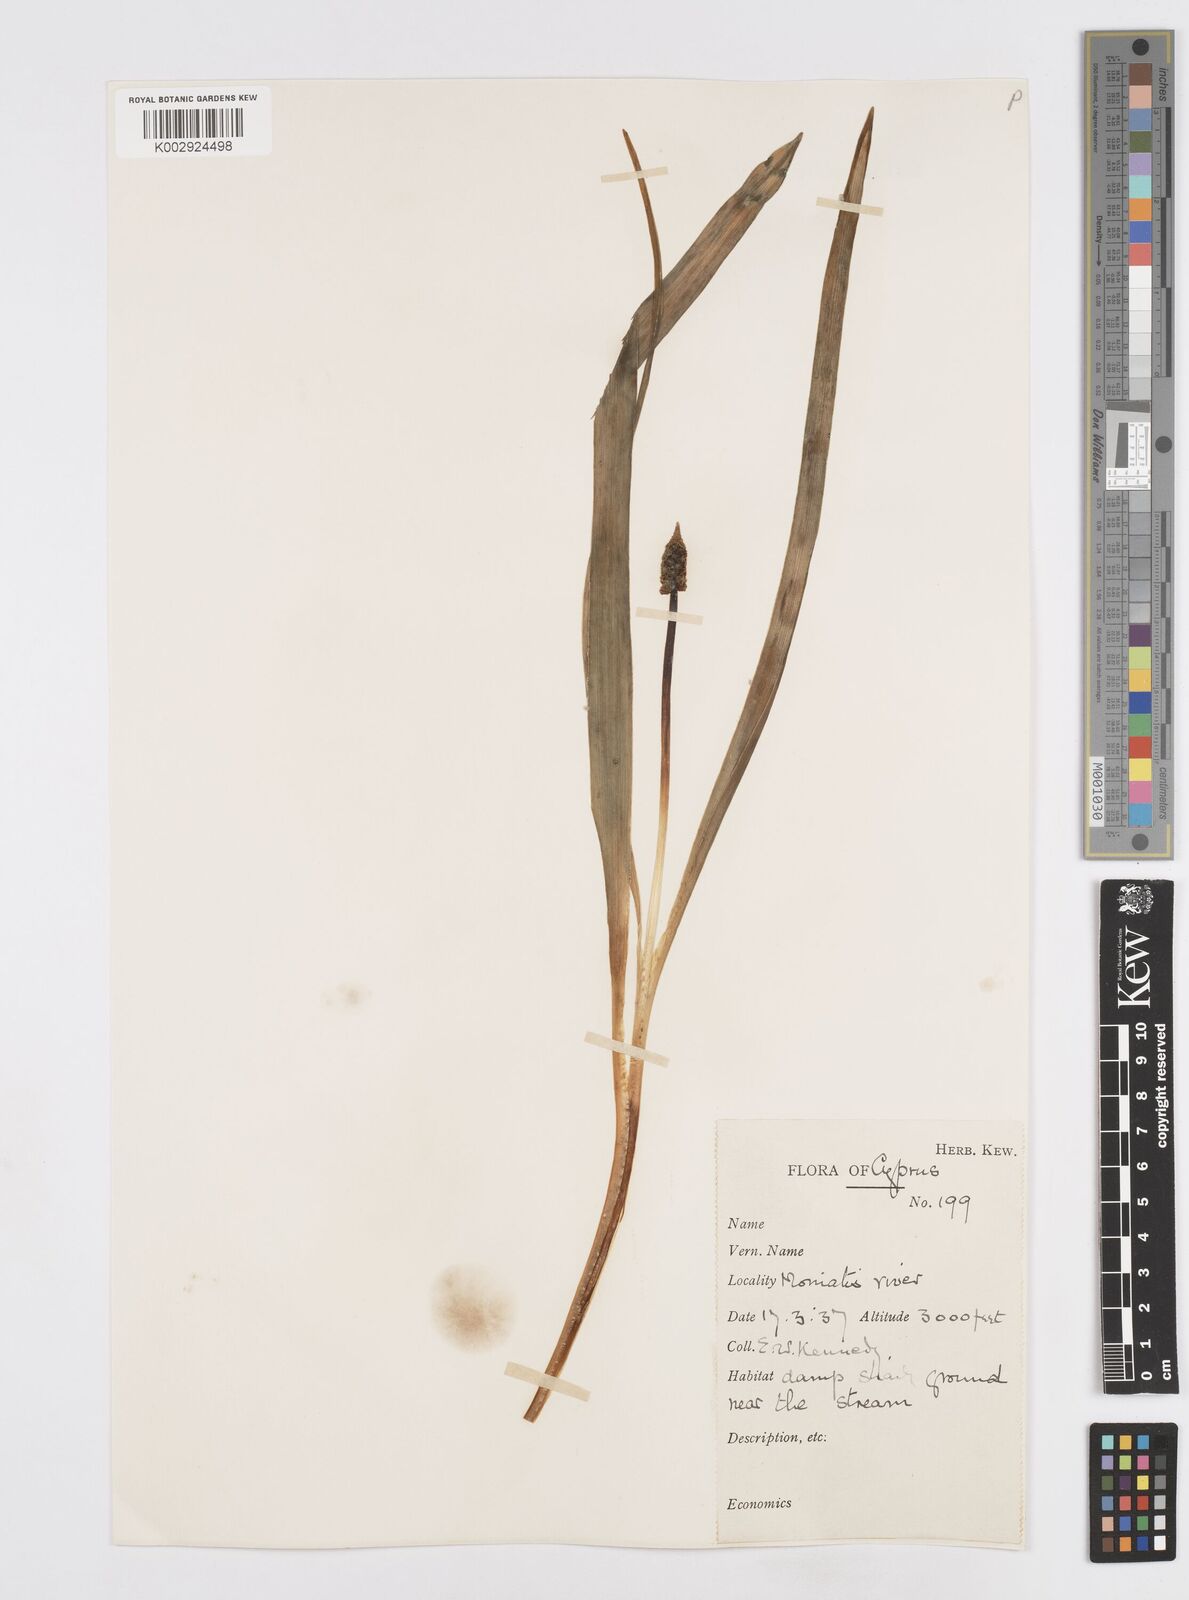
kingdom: Plantae
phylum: Tracheophyta
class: Liliopsida
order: Asparagales
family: Asparagaceae
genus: Bellevalia
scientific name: Bellevalia nivalis
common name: Snow bellevalia
